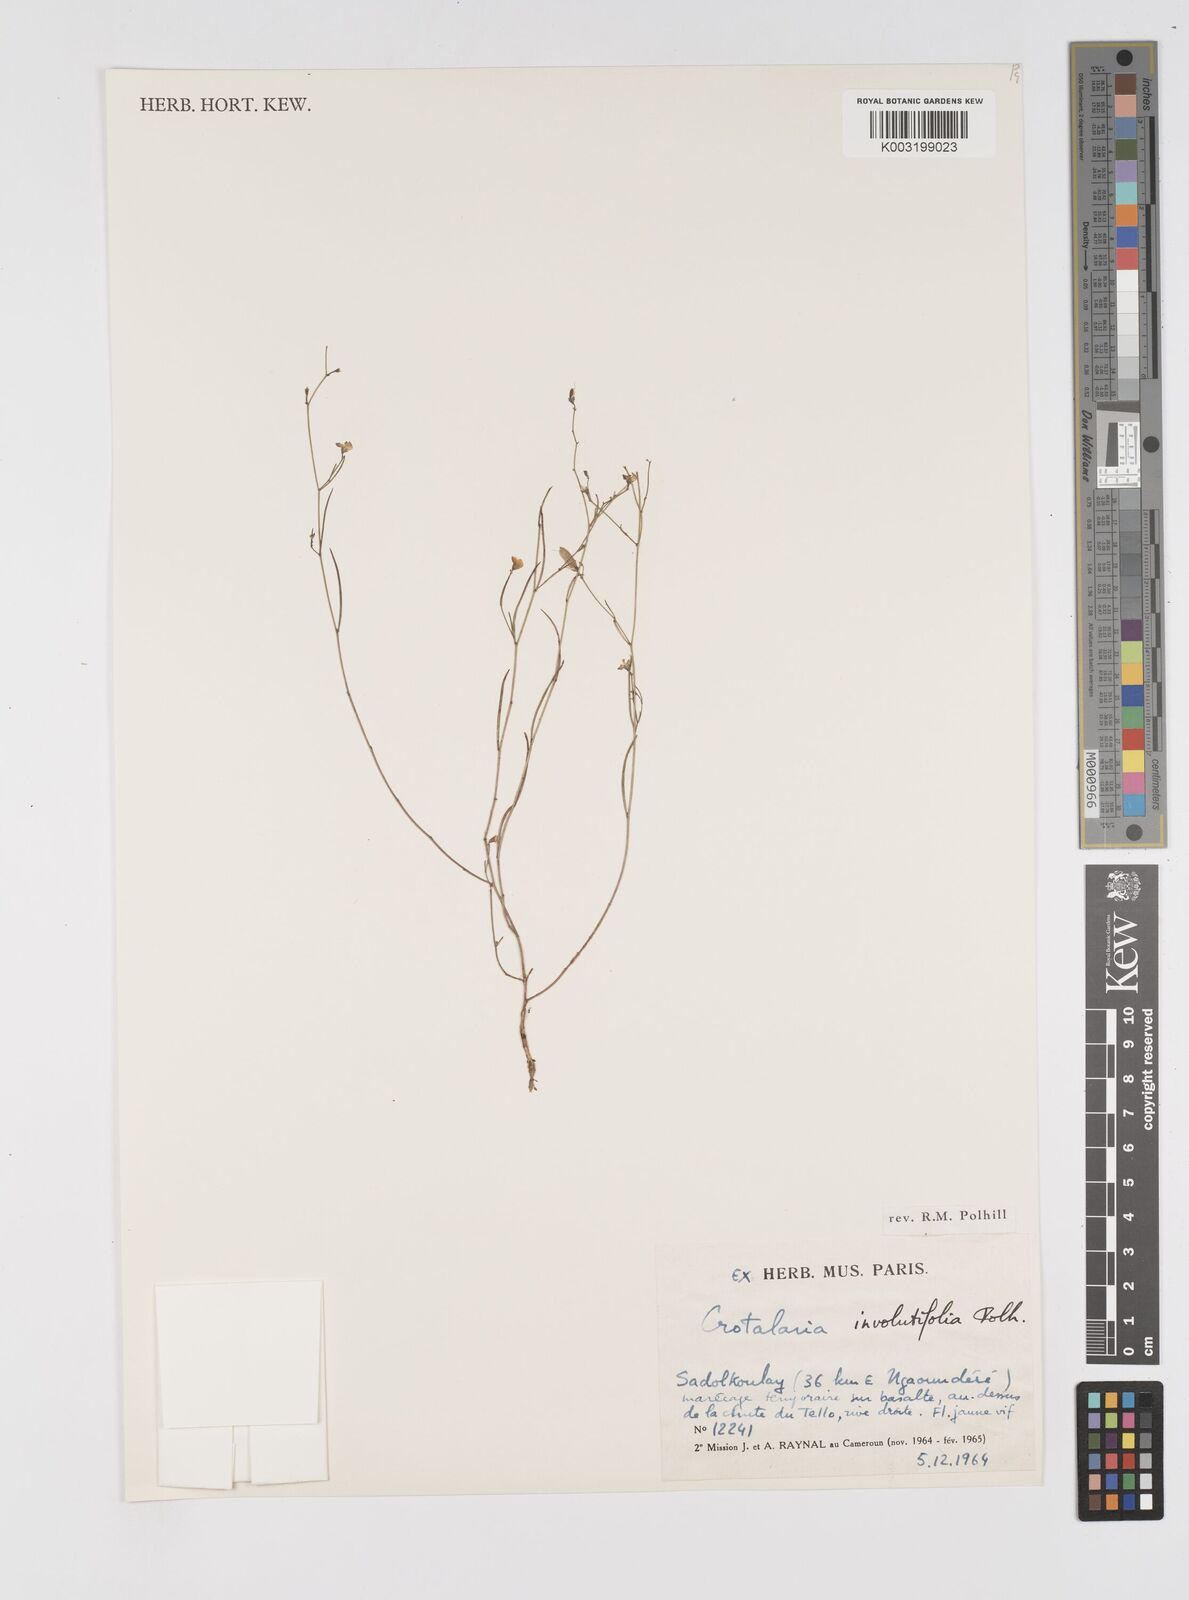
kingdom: Plantae
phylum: Tracheophyta
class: Magnoliopsida
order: Fabales
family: Fabaceae
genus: Crotalaria
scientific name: Crotalaria involutifolia
